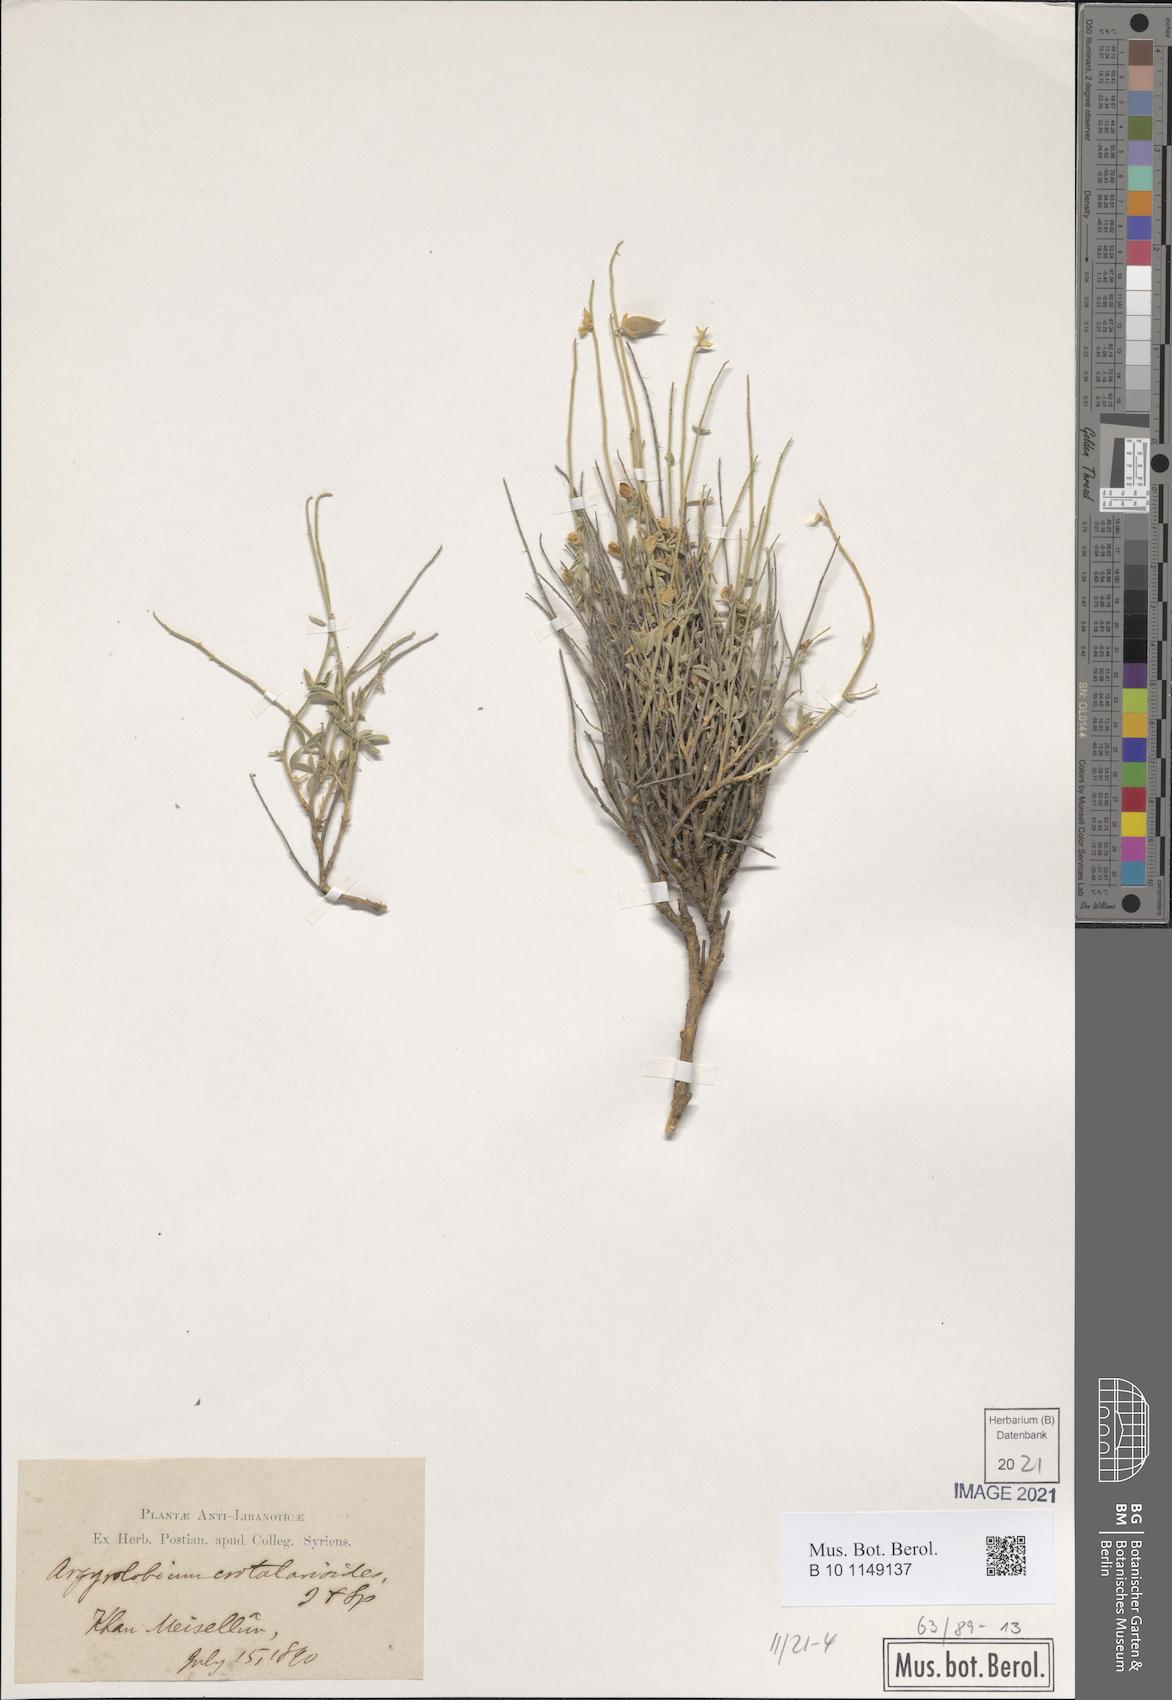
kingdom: Plantae
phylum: Tracheophyta
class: Magnoliopsida
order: Fabales
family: Fabaceae
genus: Argyrolobium
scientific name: Argyrolobium crotalarioides
